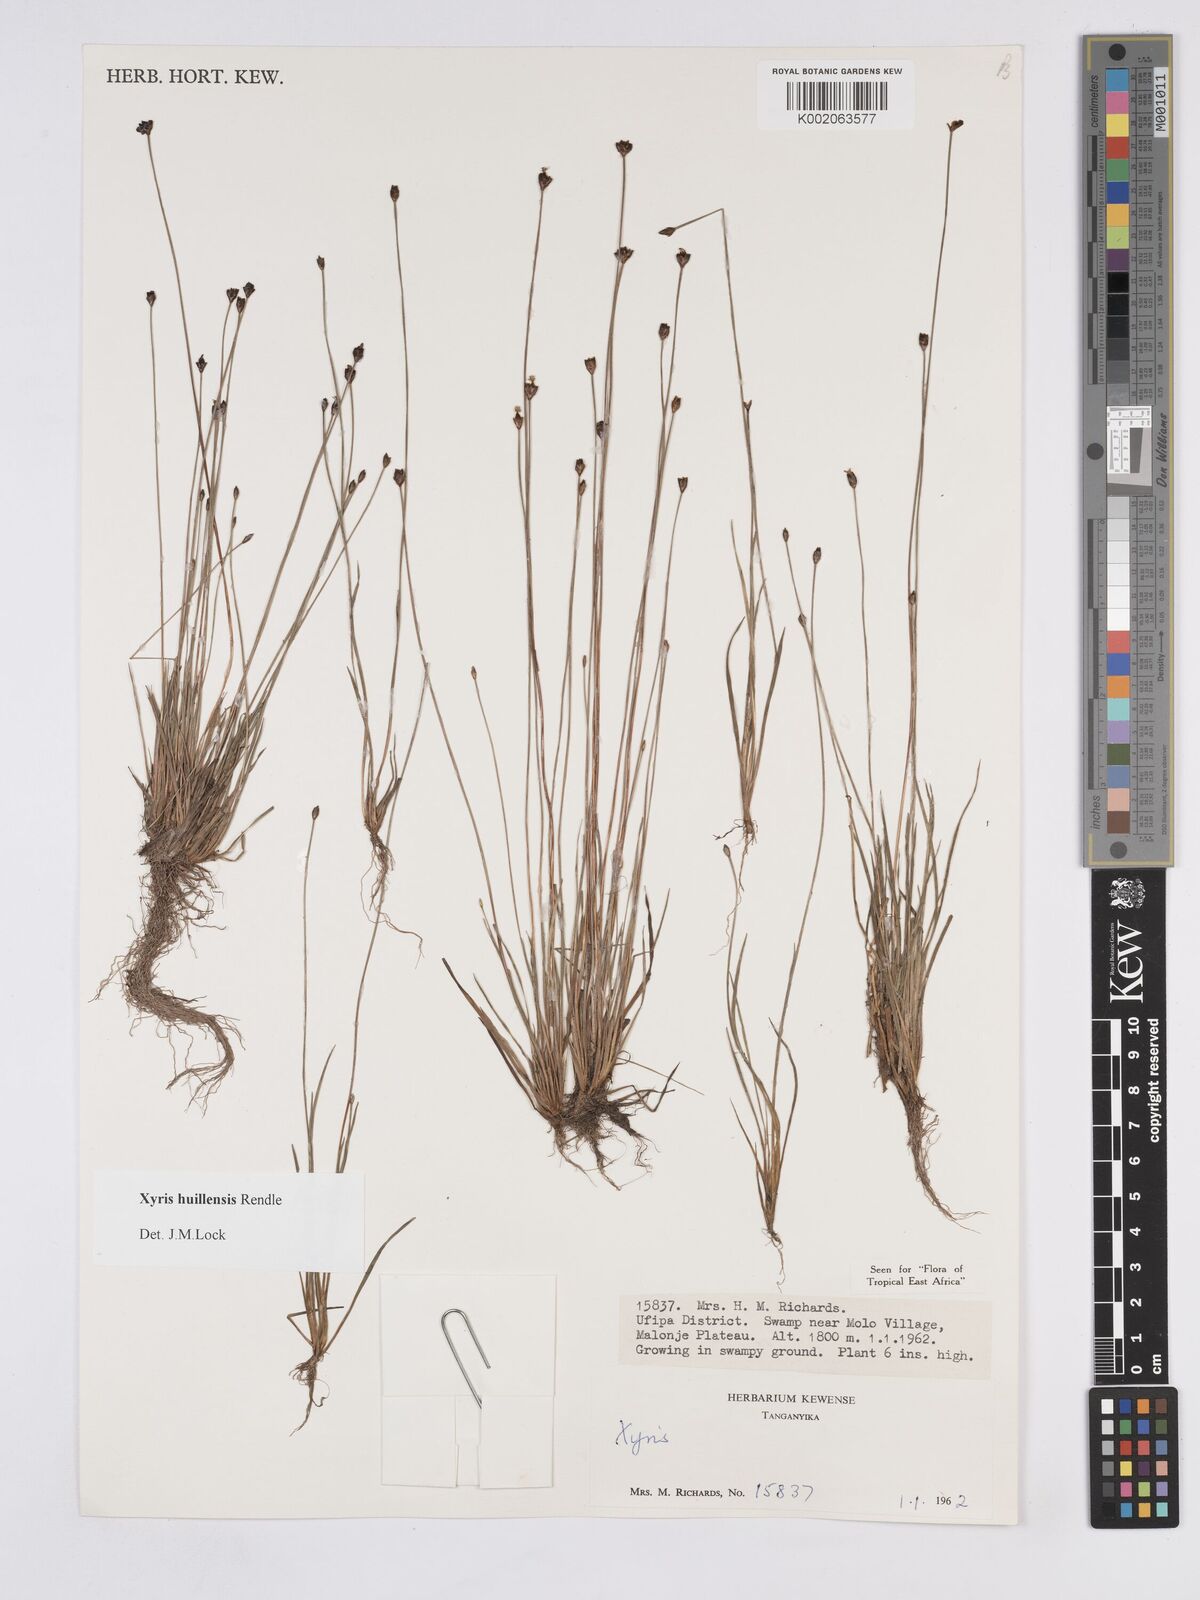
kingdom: Plantae
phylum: Tracheophyta
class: Liliopsida
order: Poales
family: Xyridaceae
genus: Xyris
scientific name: Xyris huillensis
